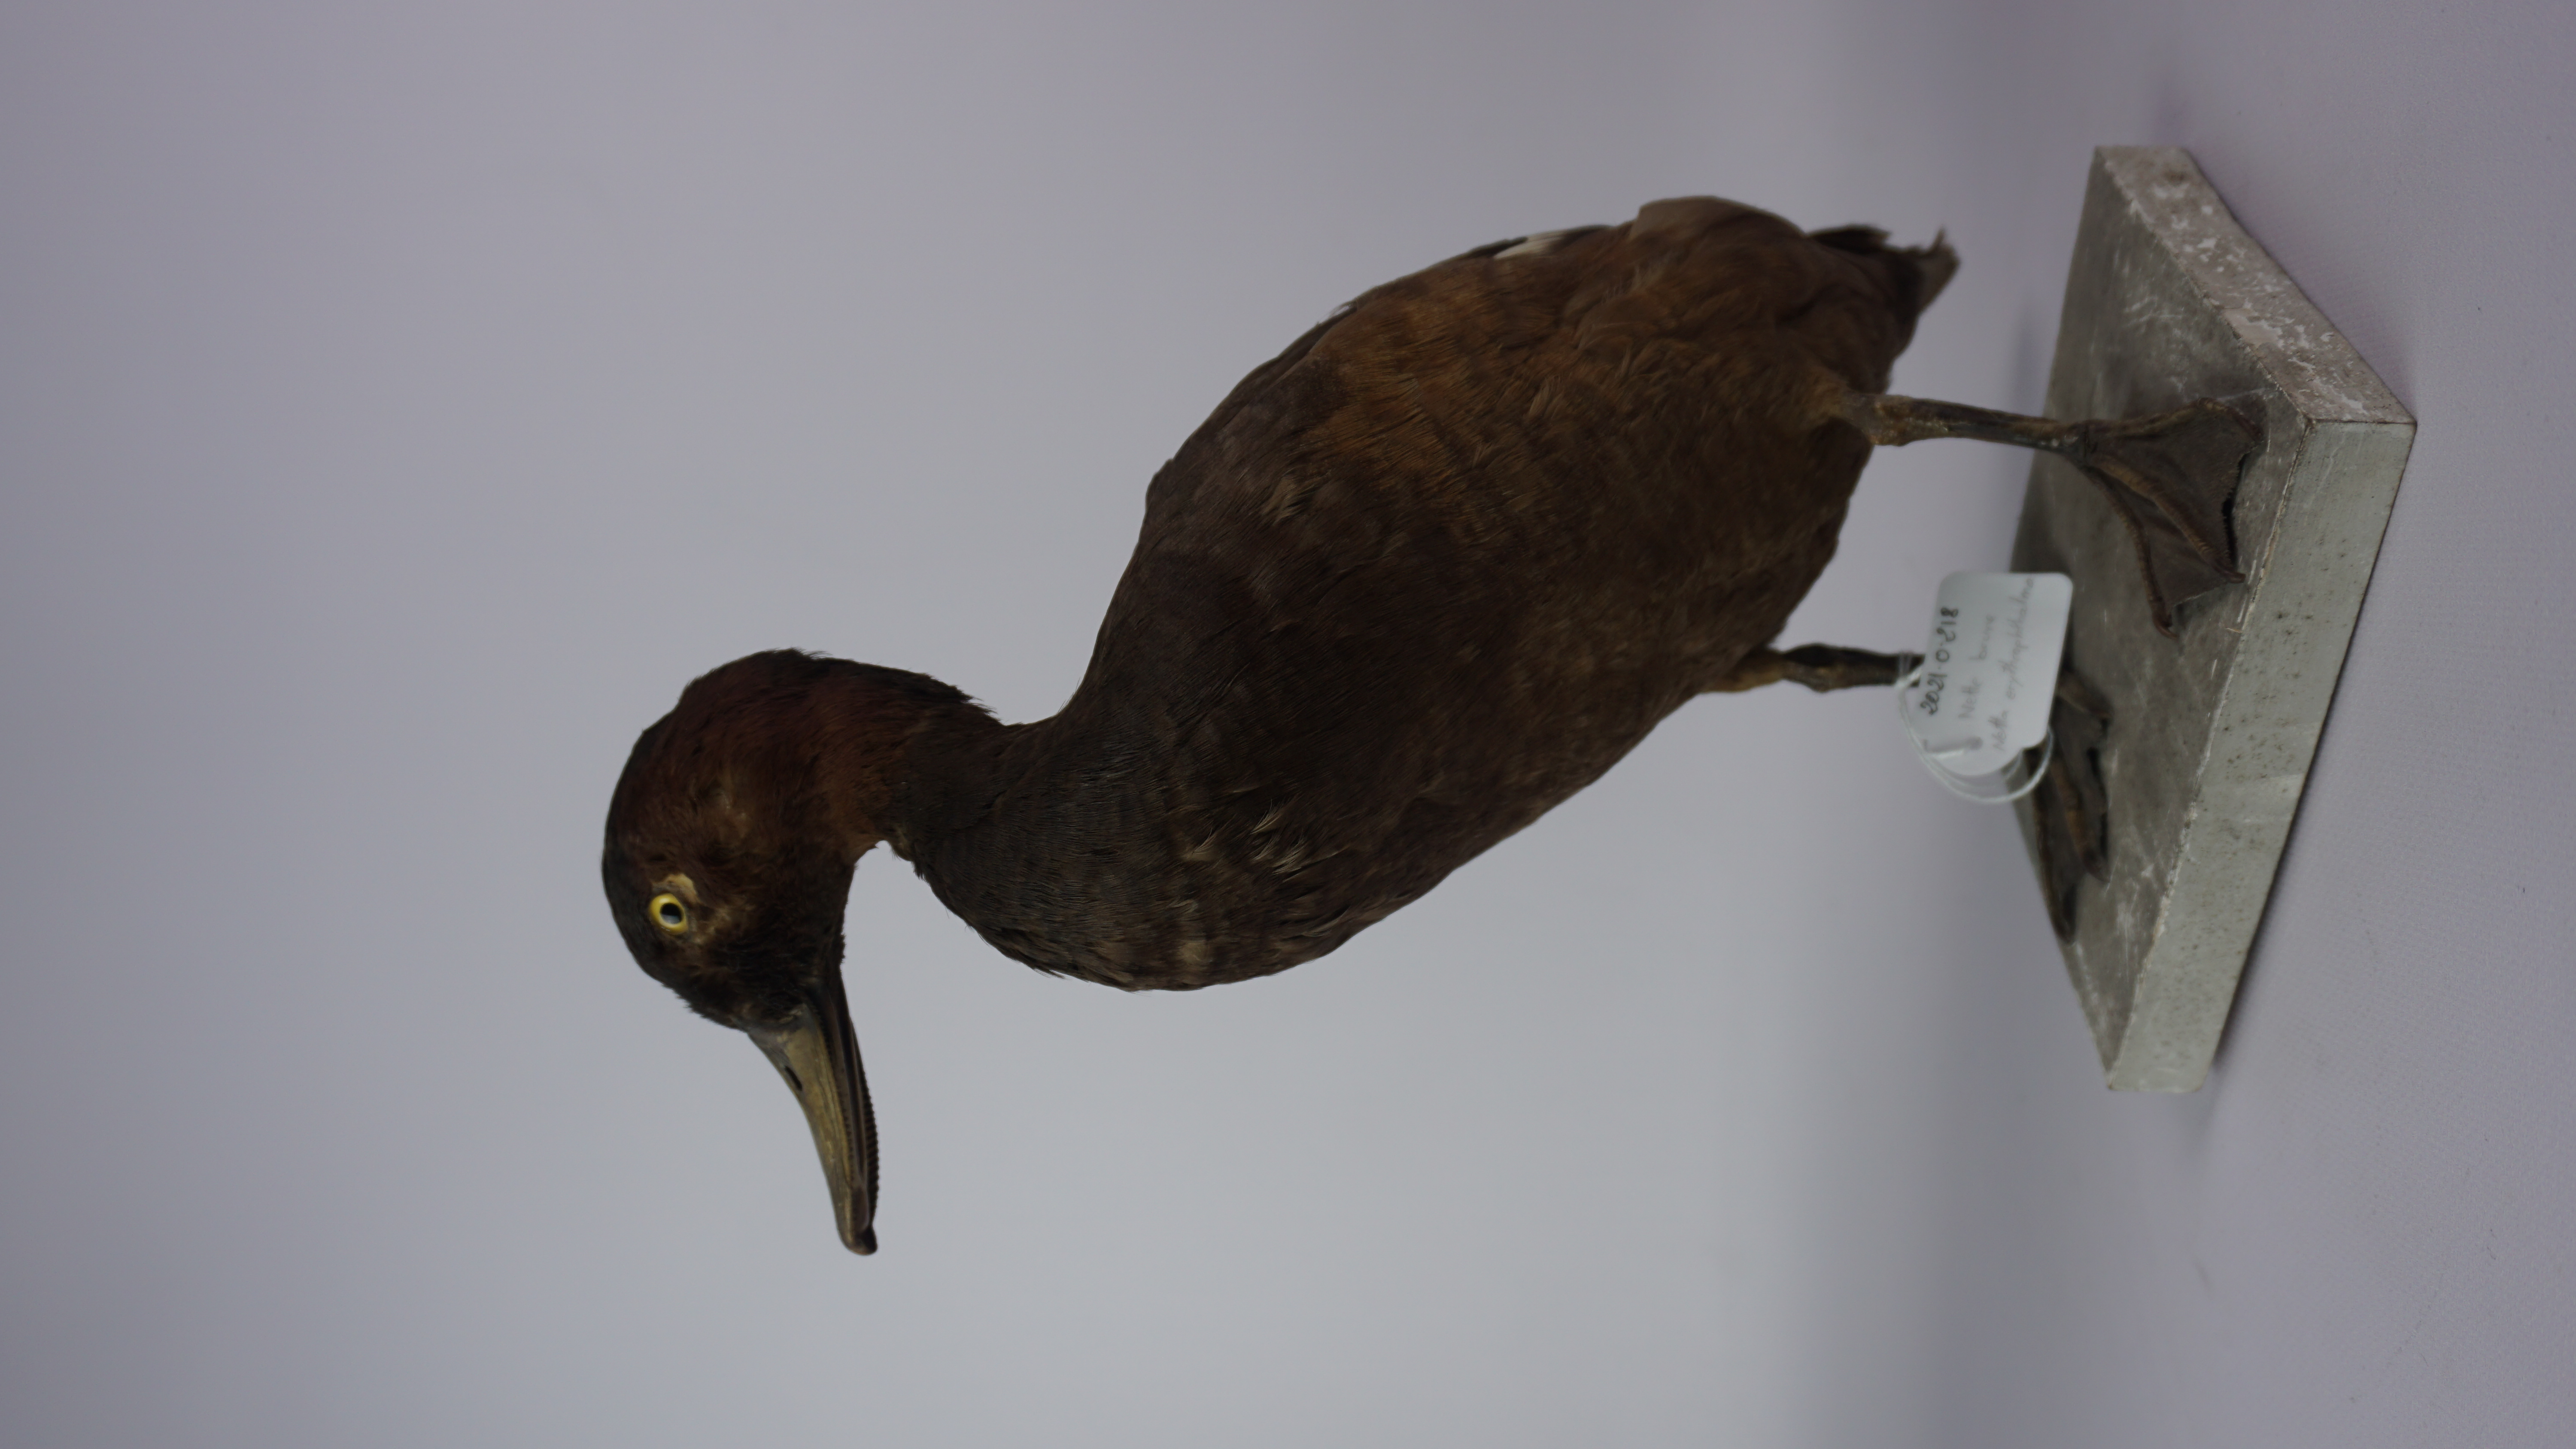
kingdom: Animalia
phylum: Chordata
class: Aves
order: Anseriformes
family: Anatidae
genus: Netta
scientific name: Netta erythrophthalma
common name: Southern pochard
